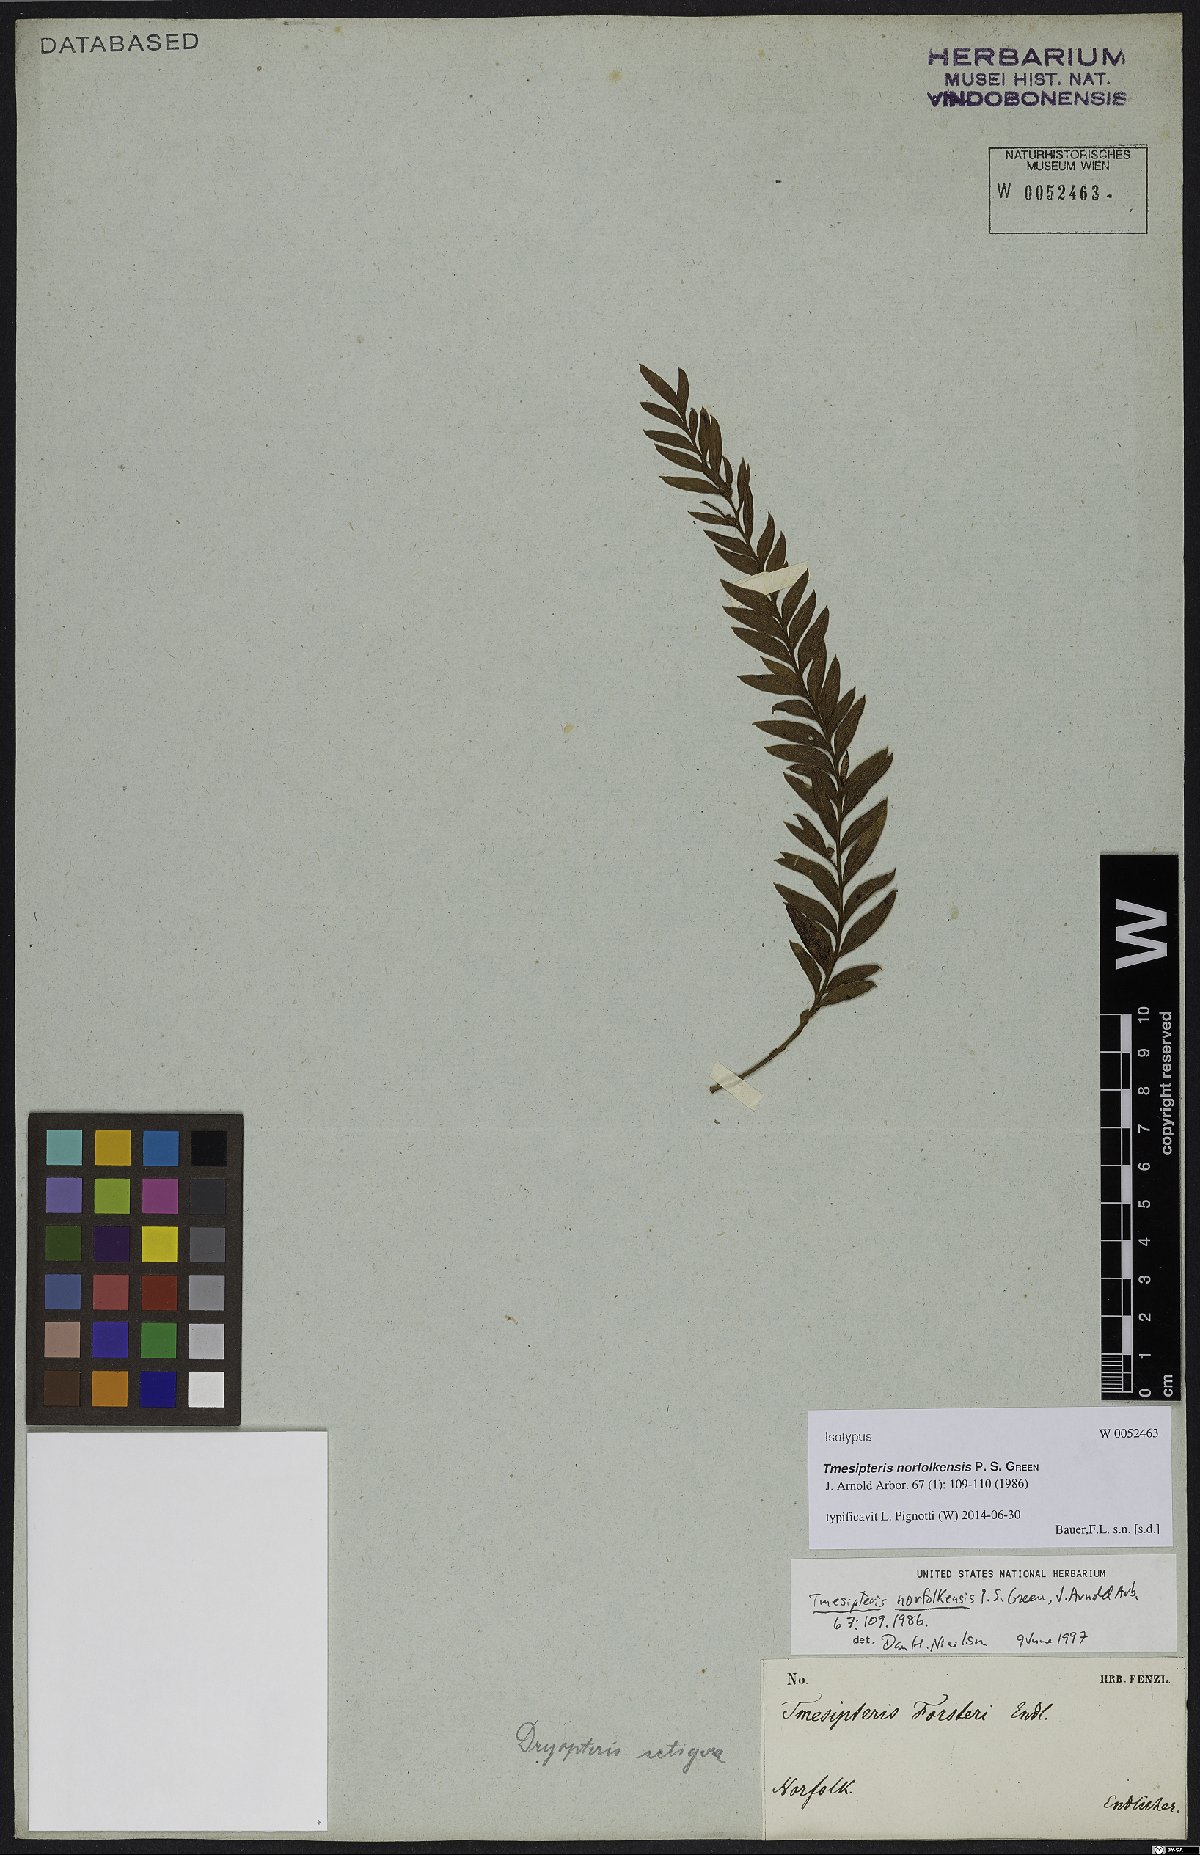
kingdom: Plantae
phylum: Tracheophyta
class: Polypodiopsida
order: Psilotales
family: Psilotaceae
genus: Tmesipteris
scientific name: Tmesipteris norfolkensis
